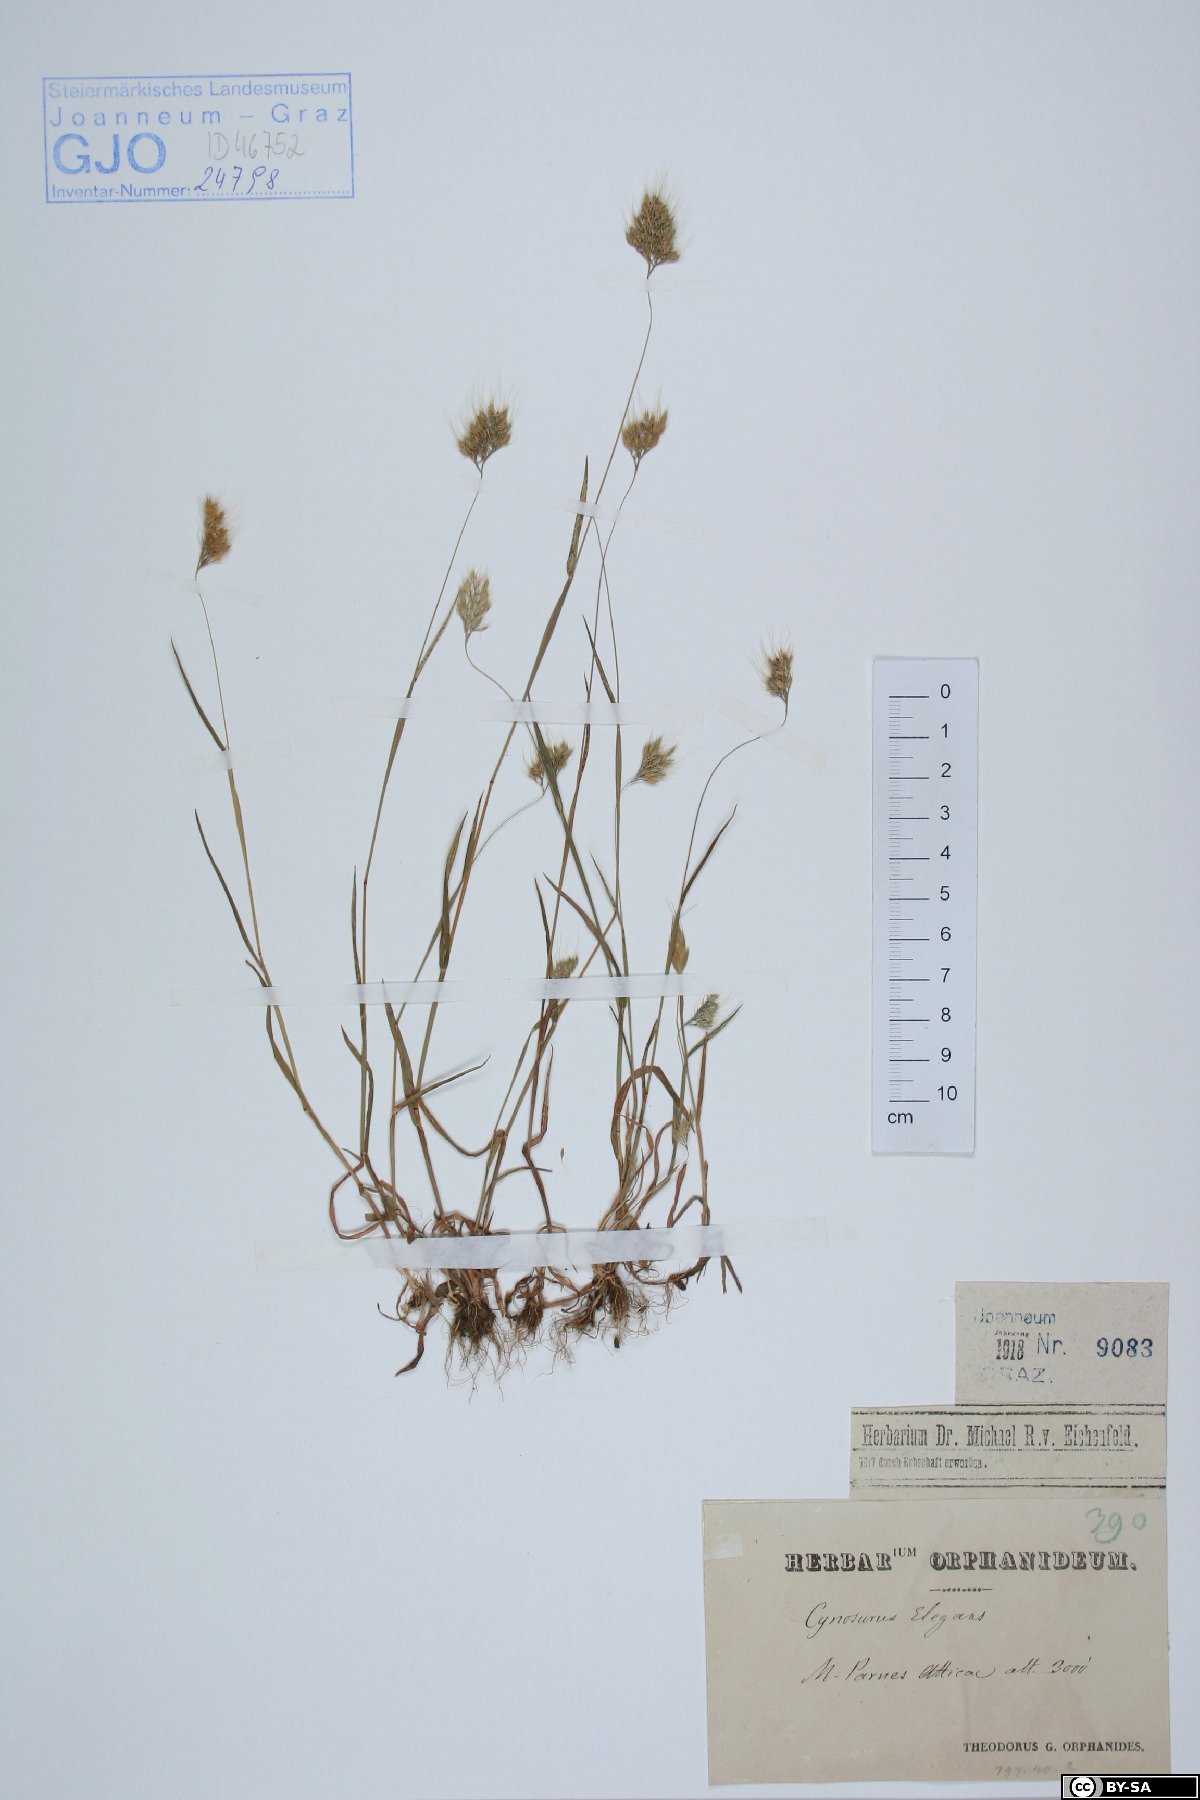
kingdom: Plantae
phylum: Tracheophyta
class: Liliopsida
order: Poales
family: Poaceae
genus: Cynosurus
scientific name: Cynosurus elegans
